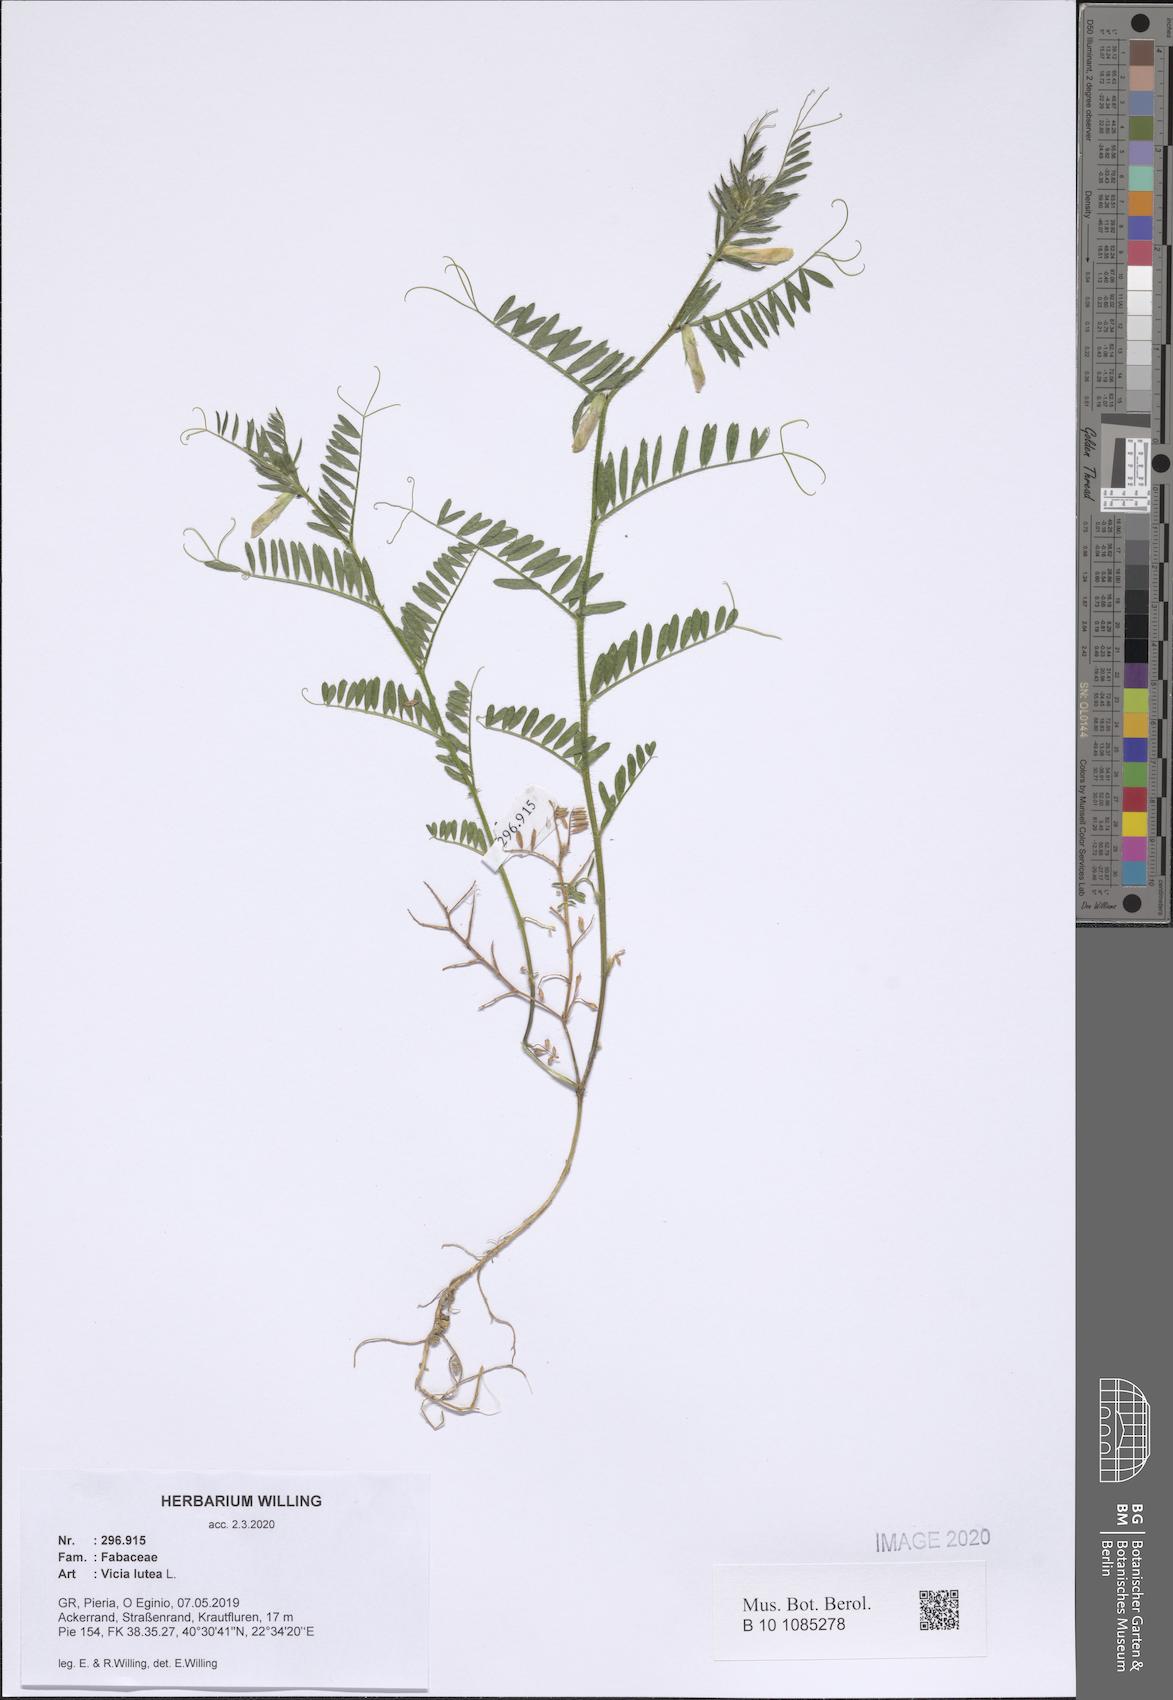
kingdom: Plantae
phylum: Tracheophyta
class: Magnoliopsida
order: Fabales
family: Fabaceae
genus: Vicia
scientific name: Vicia lutea
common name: Smooth yellow vetch
